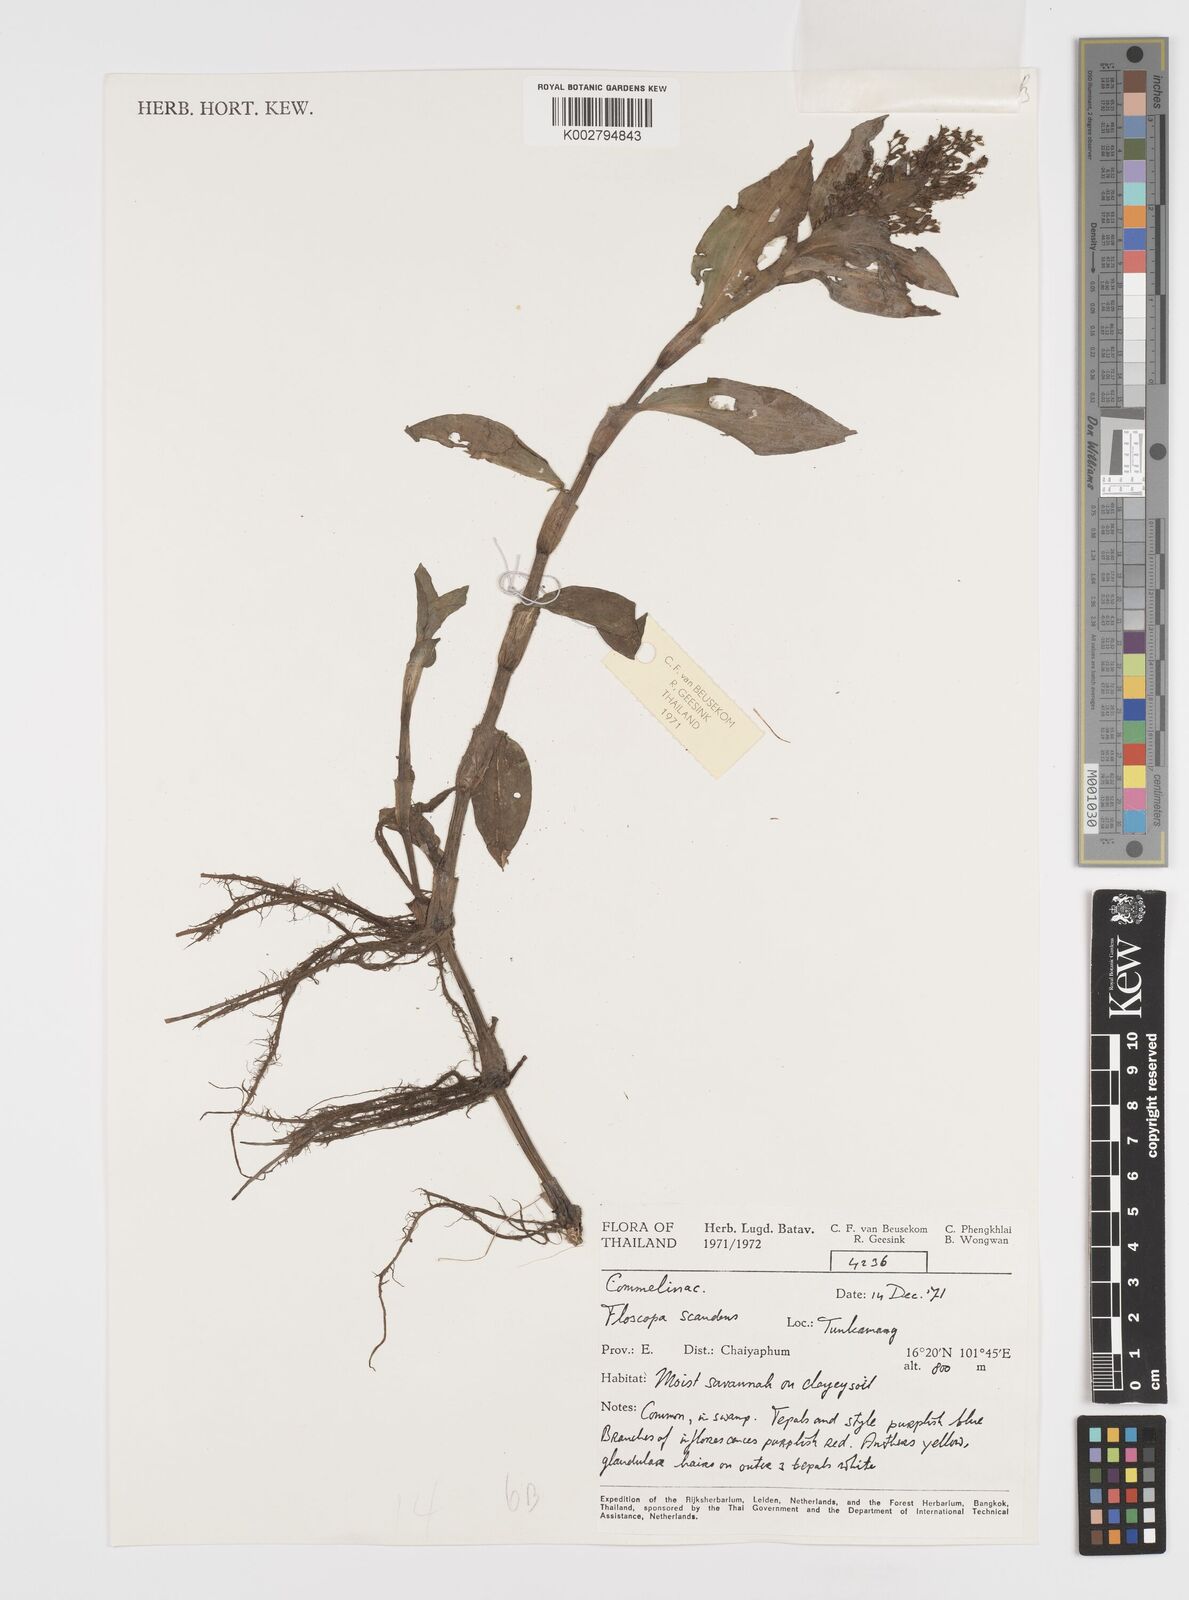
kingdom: Plantae
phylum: Tracheophyta
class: Liliopsida
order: Commelinales
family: Commelinaceae
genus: Floscopa
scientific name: Floscopa scandens
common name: Climbing flower cup
